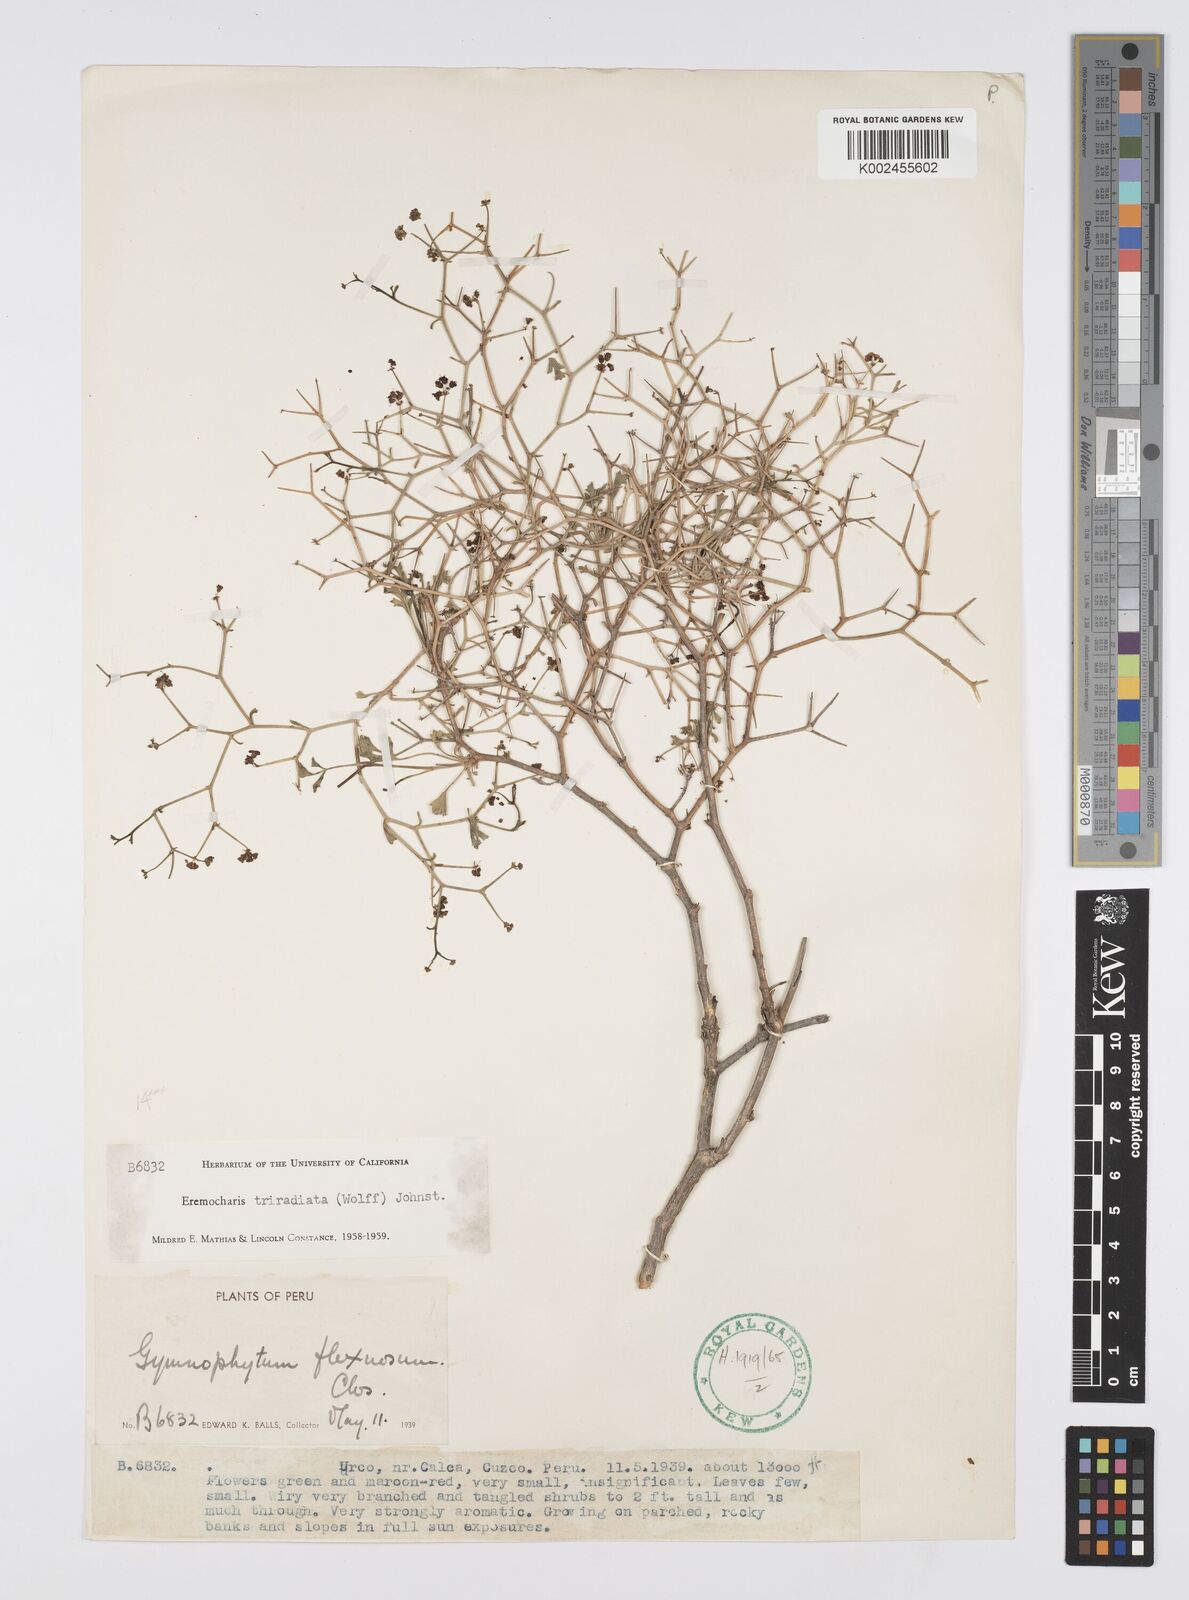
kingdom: Plantae
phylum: Tracheophyta
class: Magnoliopsida
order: Apiales
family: Apiaceae
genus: Eremocharis
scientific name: Eremocharis triradiata
